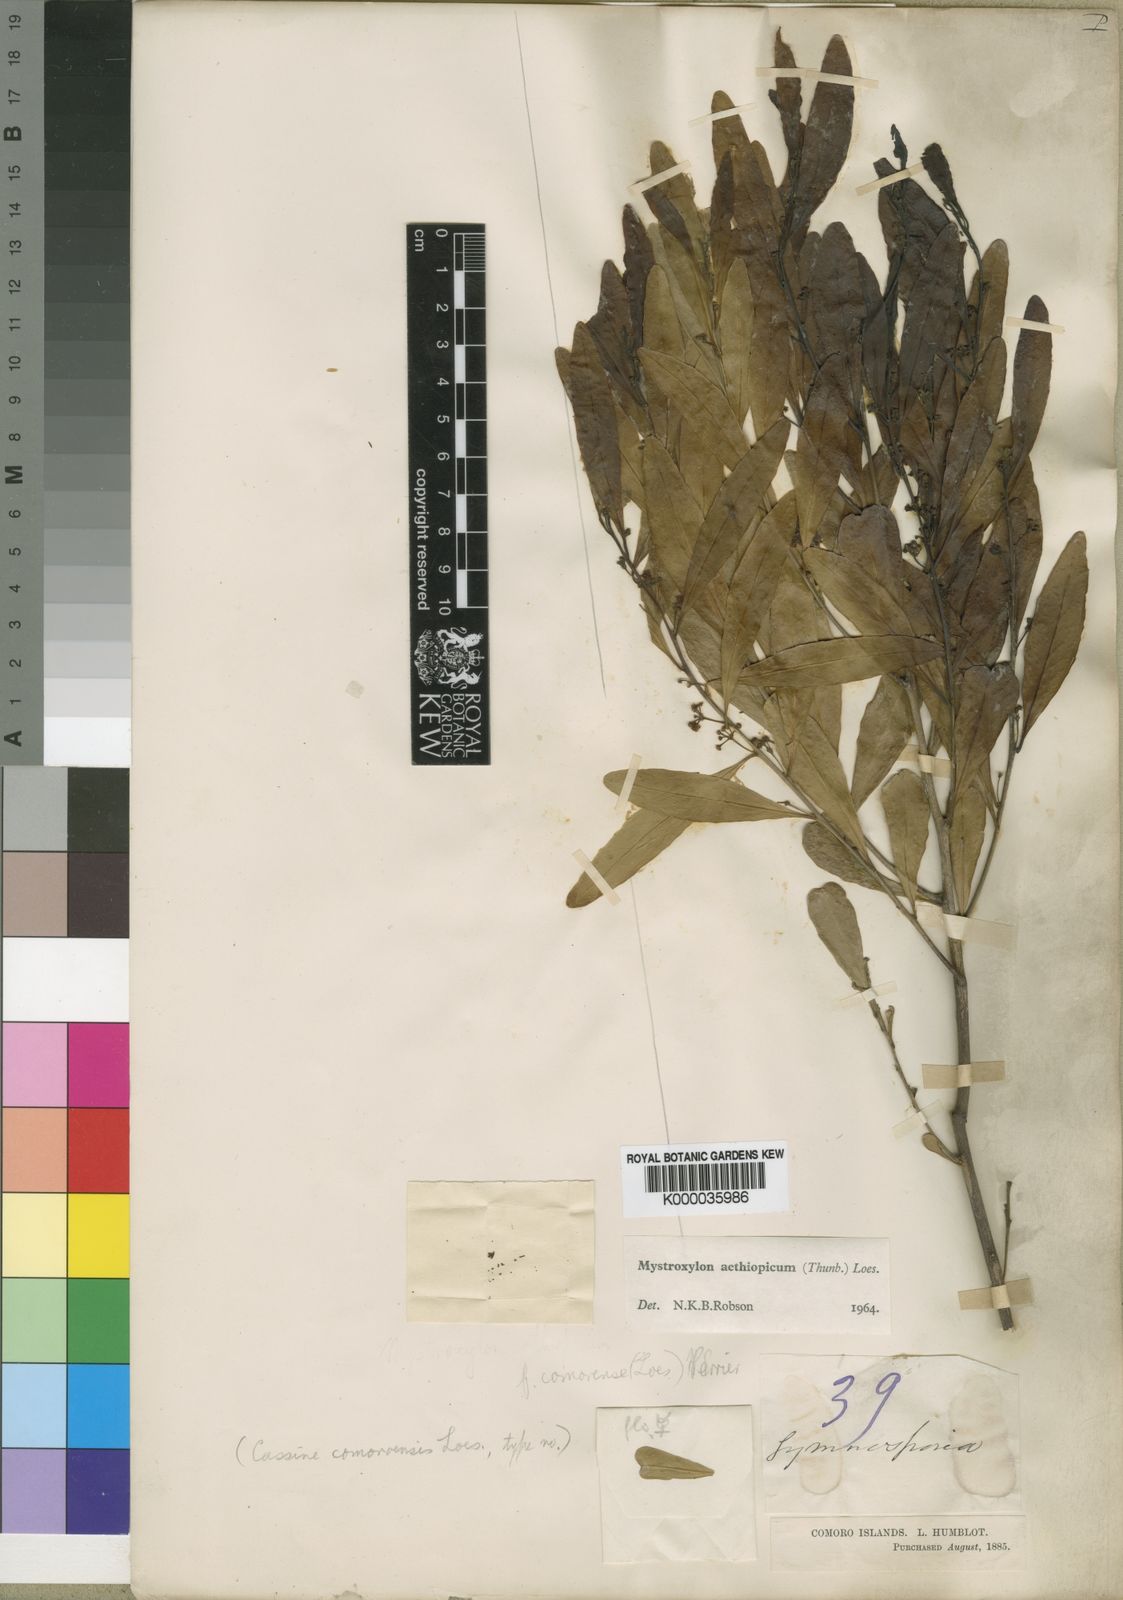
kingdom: Plantae
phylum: Tracheophyta
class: Magnoliopsida
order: Celastrales
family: Celastraceae
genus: Mystroxylon
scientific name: Mystroxylon aethiopicum
